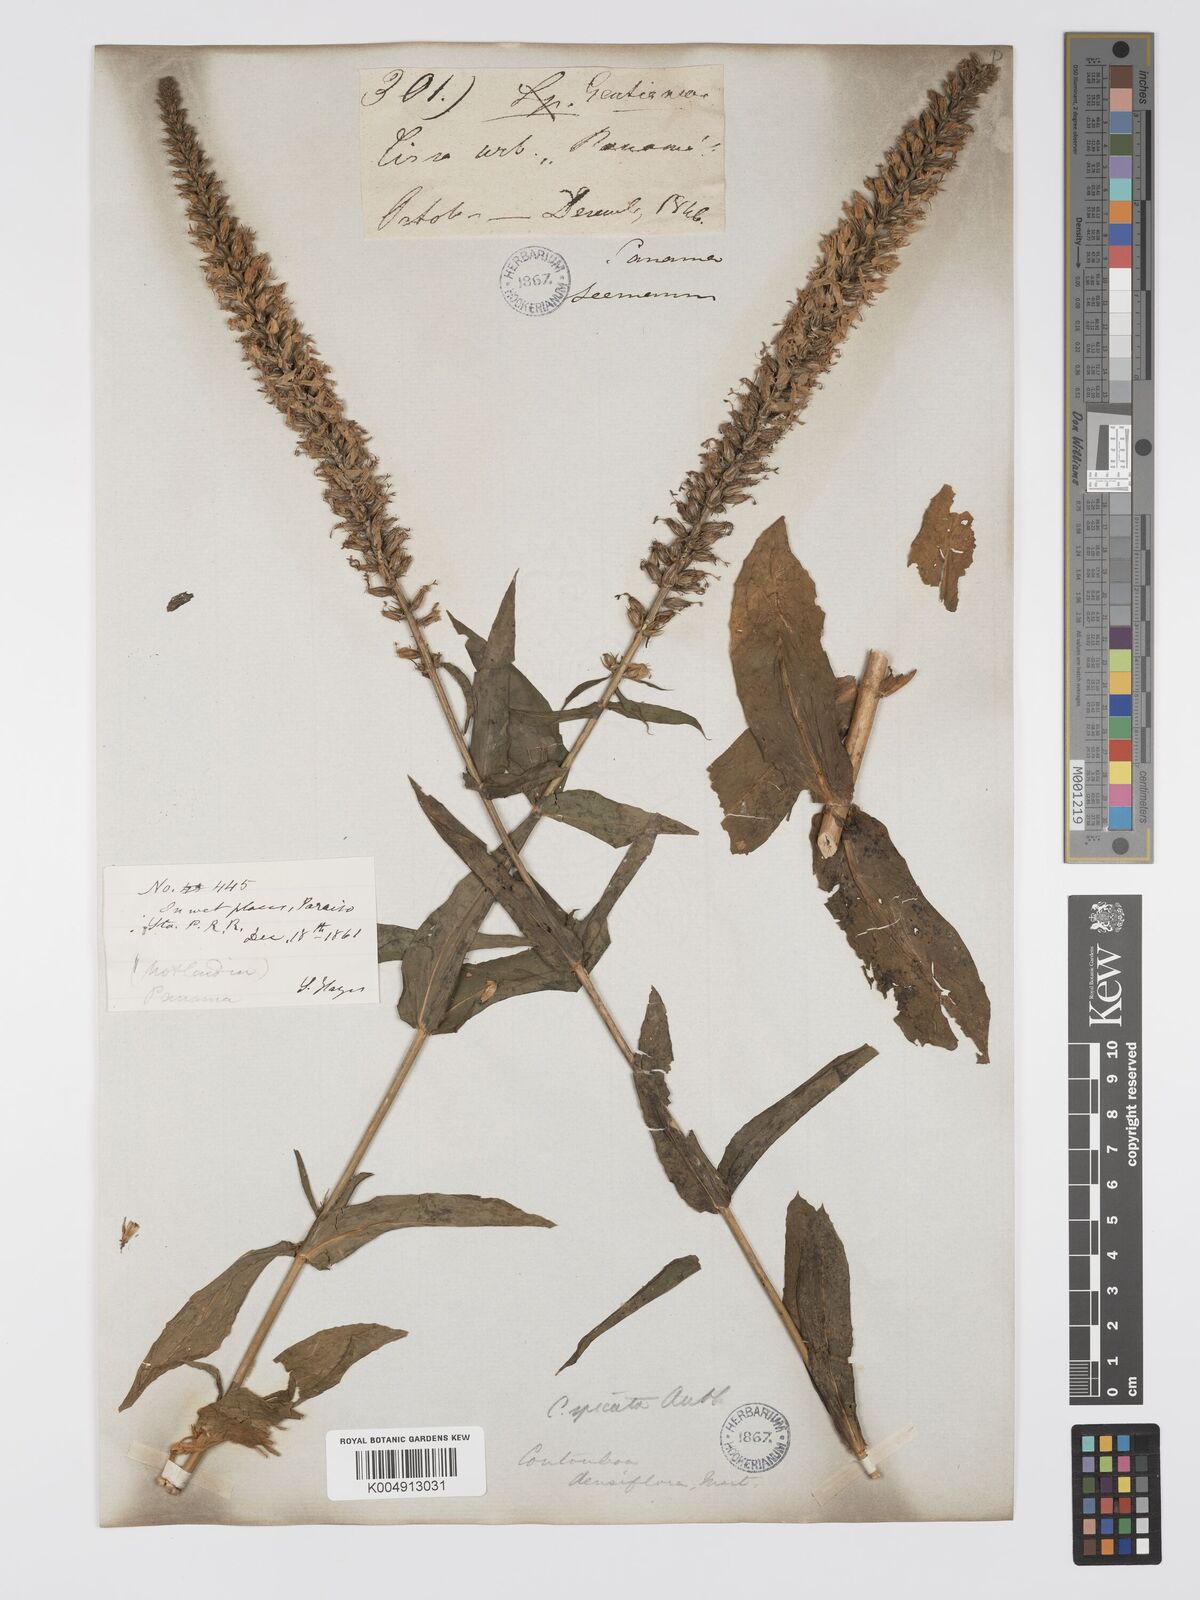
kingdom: Plantae
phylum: Tracheophyta
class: Magnoliopsida
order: Gentianales
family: Gentianaceae
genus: Coutoubea
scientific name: Coutoubea spicata
